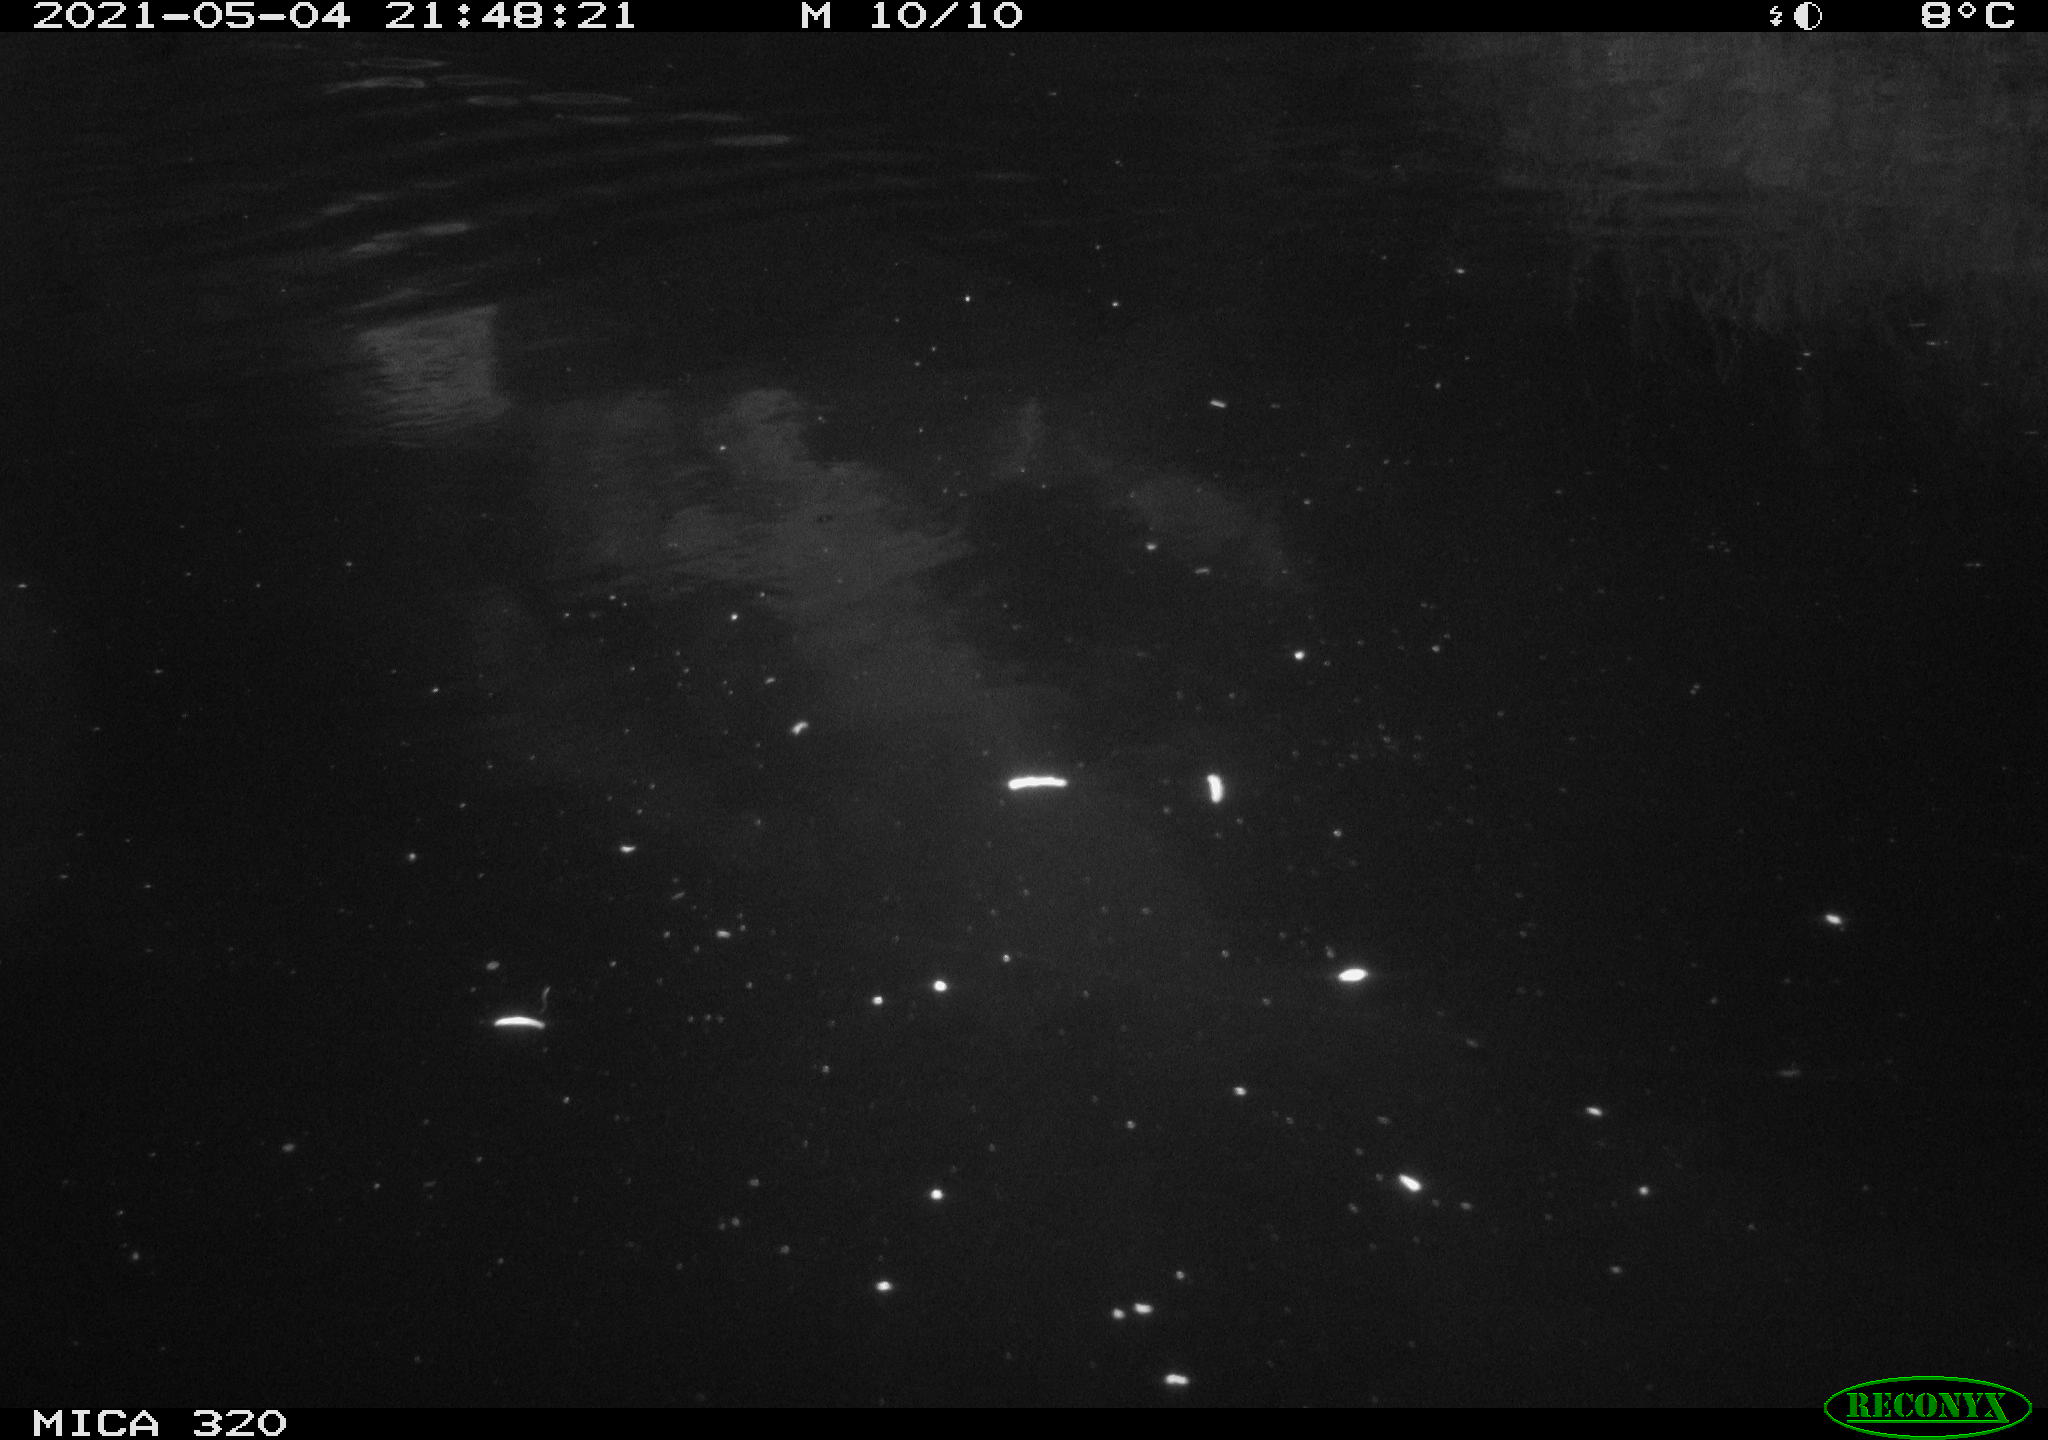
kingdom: Animalia
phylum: Chordata
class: Aves
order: Anseriformes
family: Anatidae
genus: Anas
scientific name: Anas platyrhynchos
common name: Mallard
